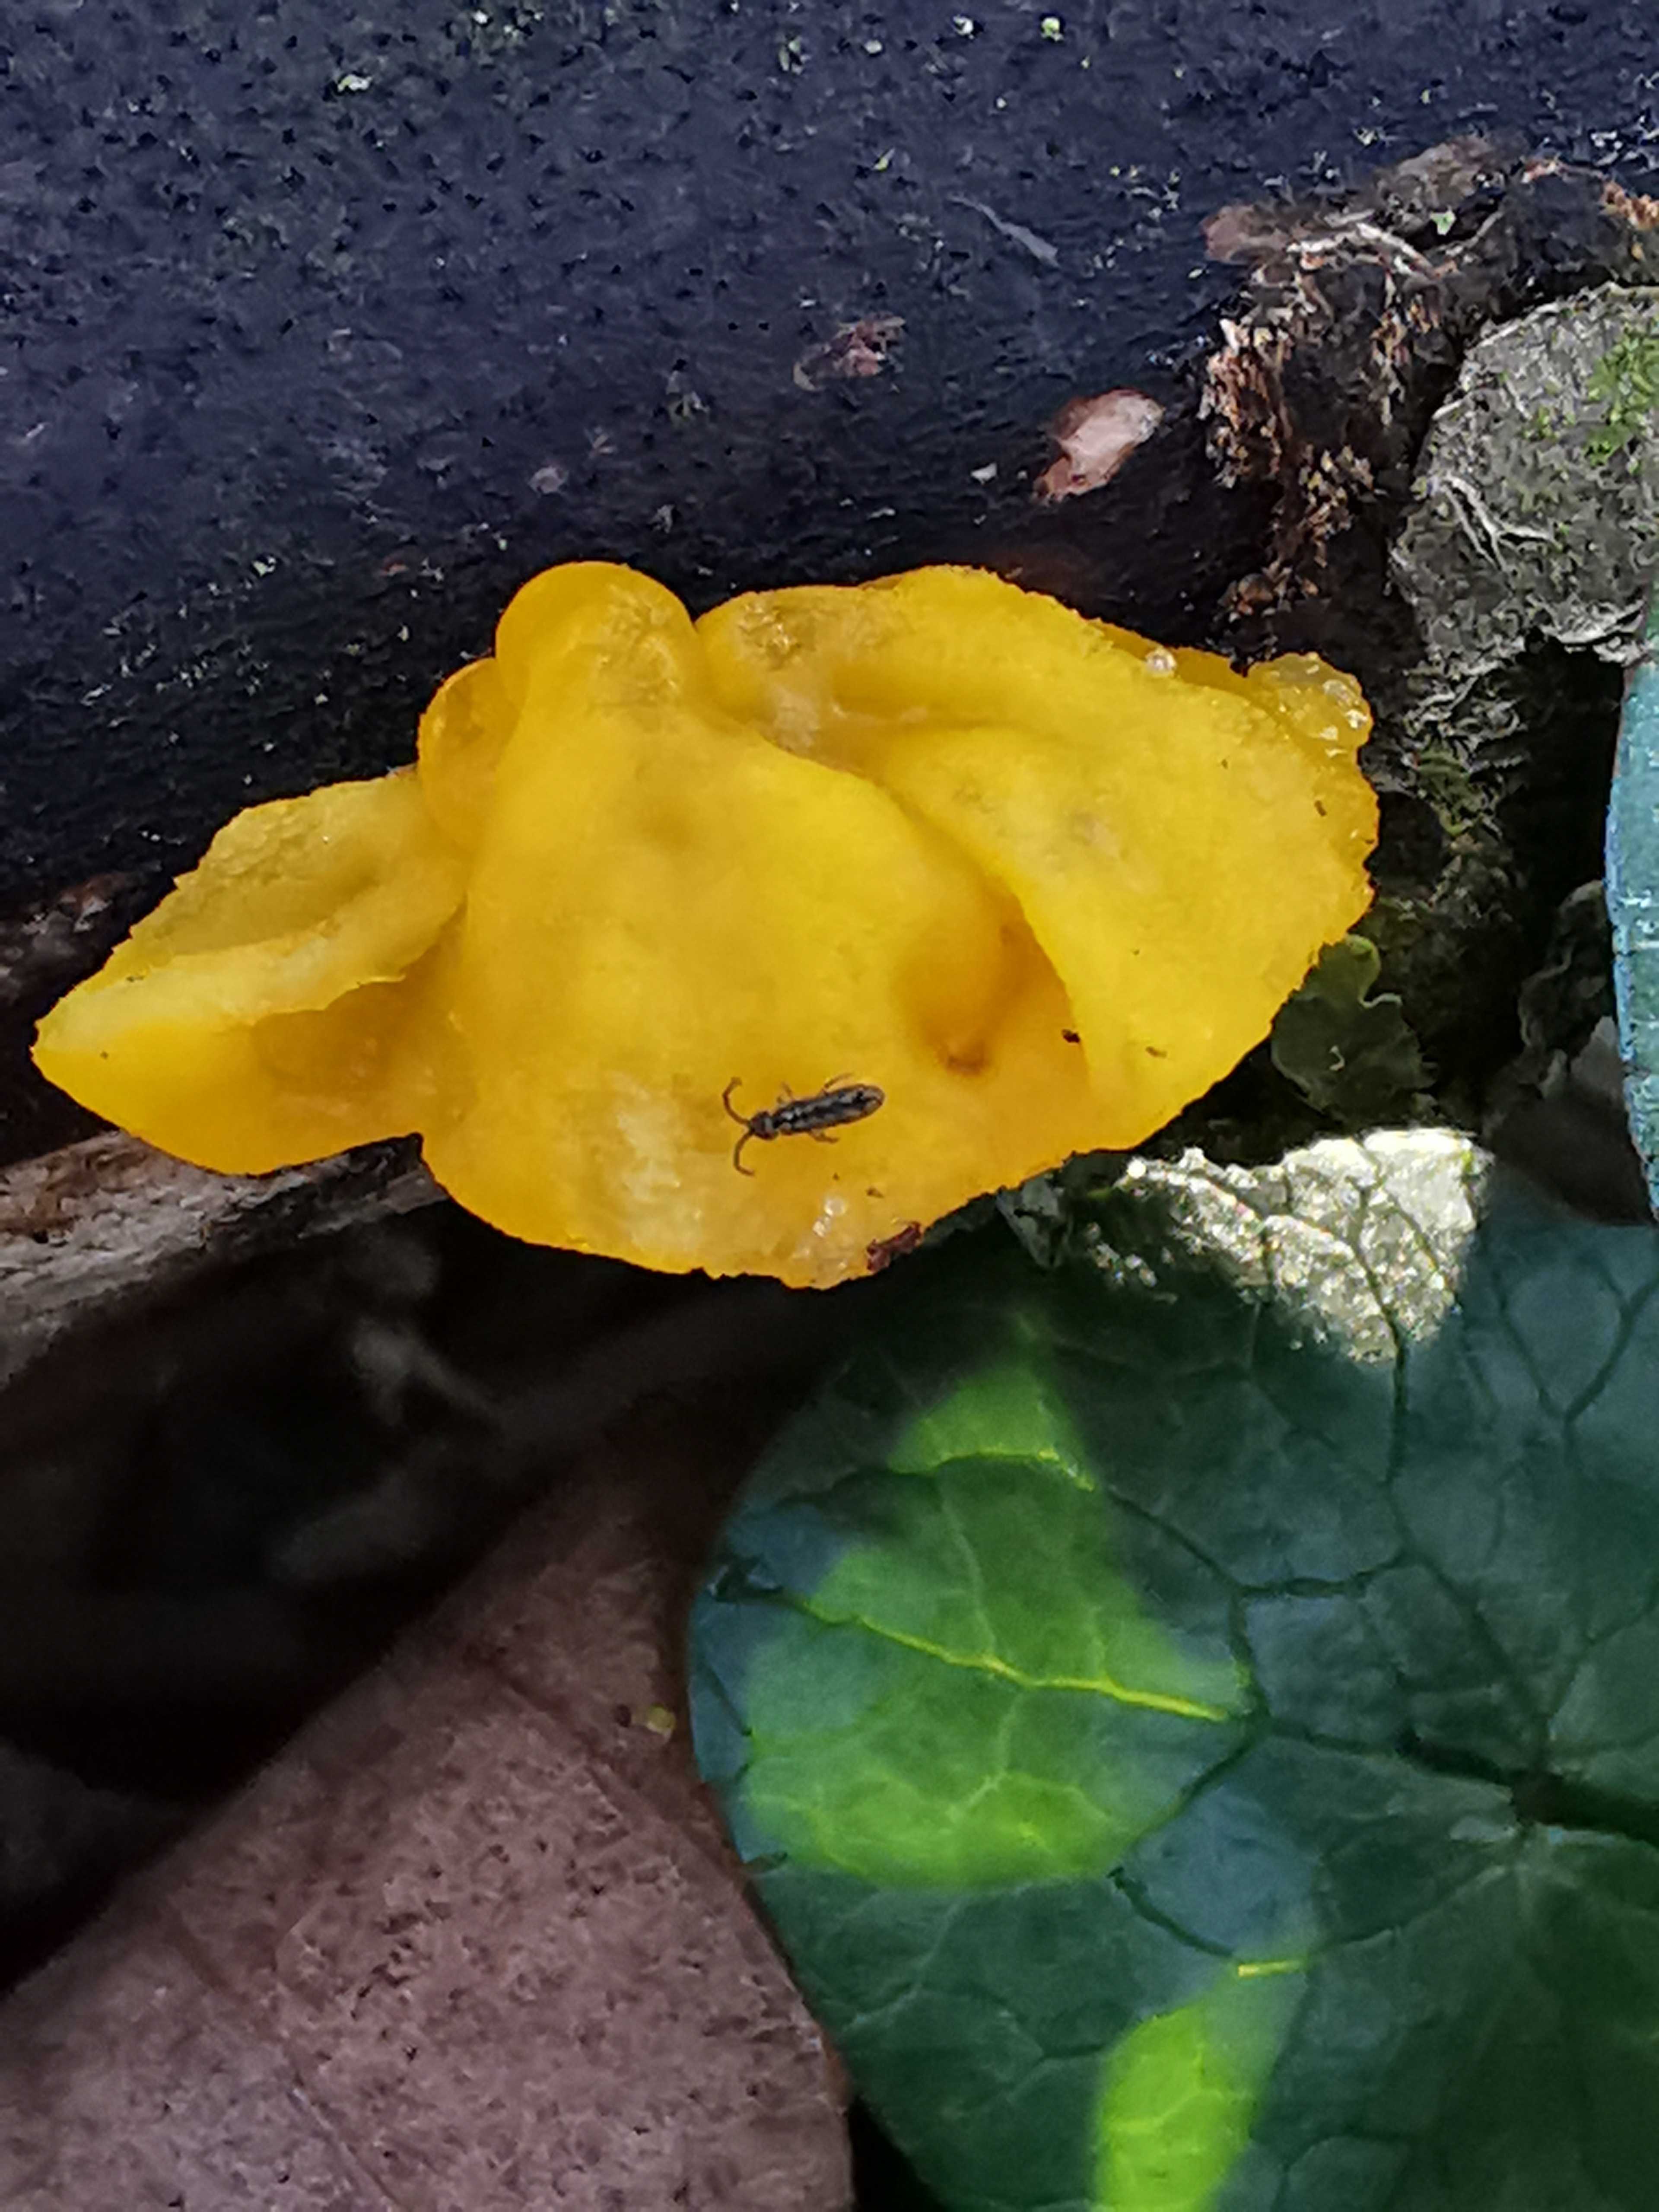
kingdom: Fungi
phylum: Basidiomycota
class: Tremellomycetes
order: Tremellales
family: Tremellaceae
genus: Tremella
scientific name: Tremella mesenterica
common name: gul bævresvamp
